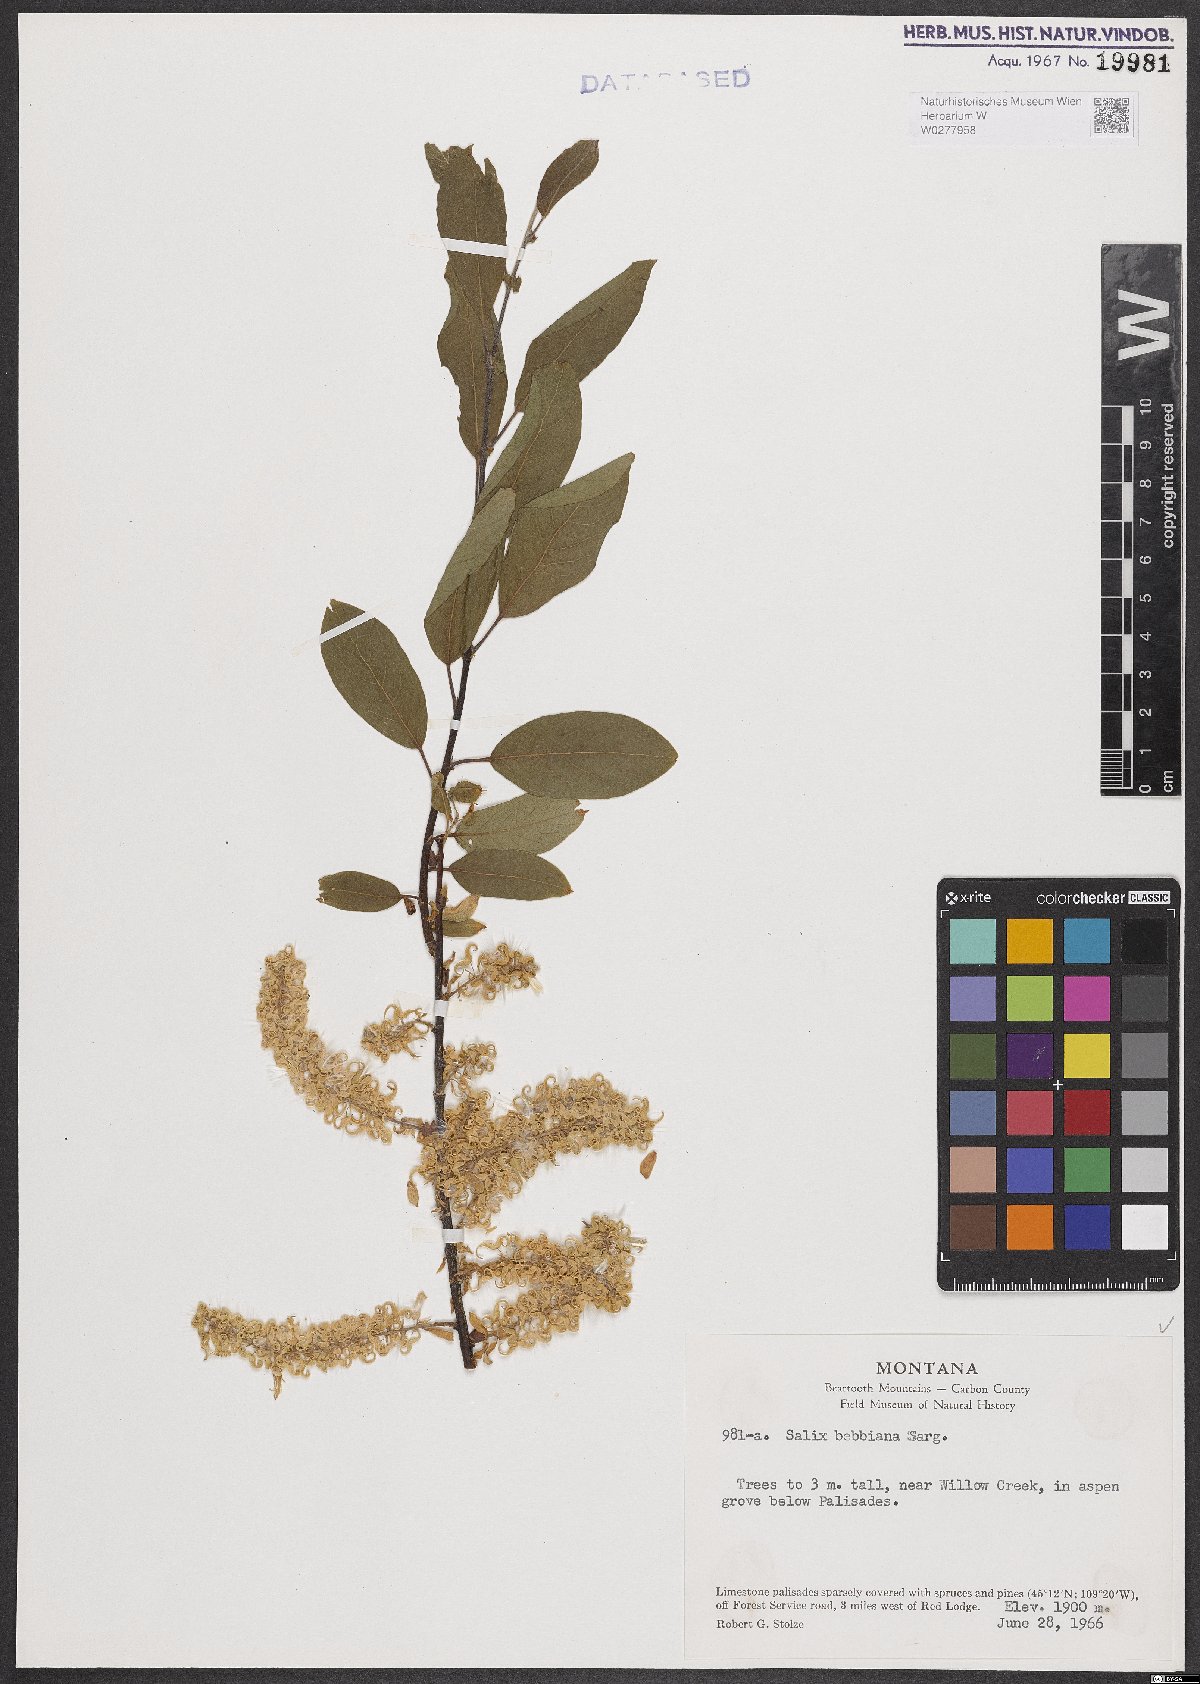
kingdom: Plantae
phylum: Tracheophyta
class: Magnoliopsida
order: Malpighiales
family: Salicaceae
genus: Salix
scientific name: Salix bebbiana
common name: Bebb's willow
